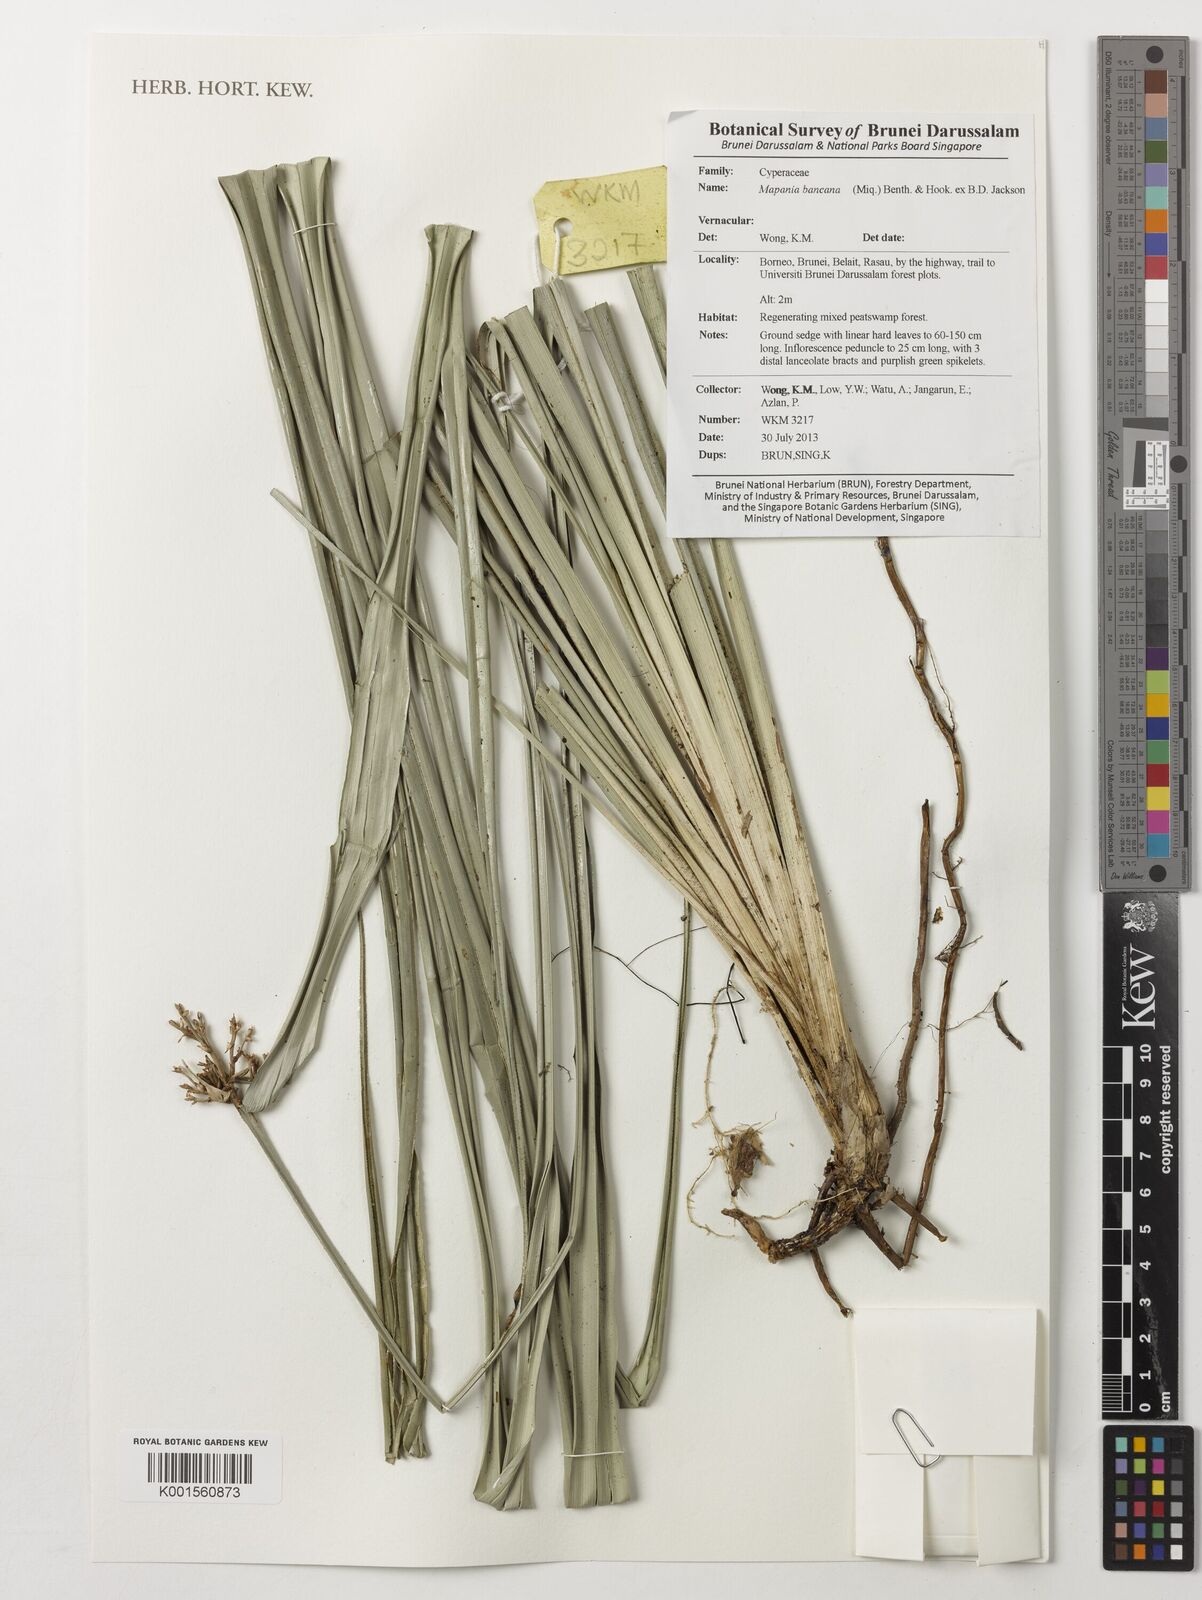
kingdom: Plantae
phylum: Tracheophyta
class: Liliopsida
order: Poales
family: Cyperaceae
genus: Mapania
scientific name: Mapania bancana
